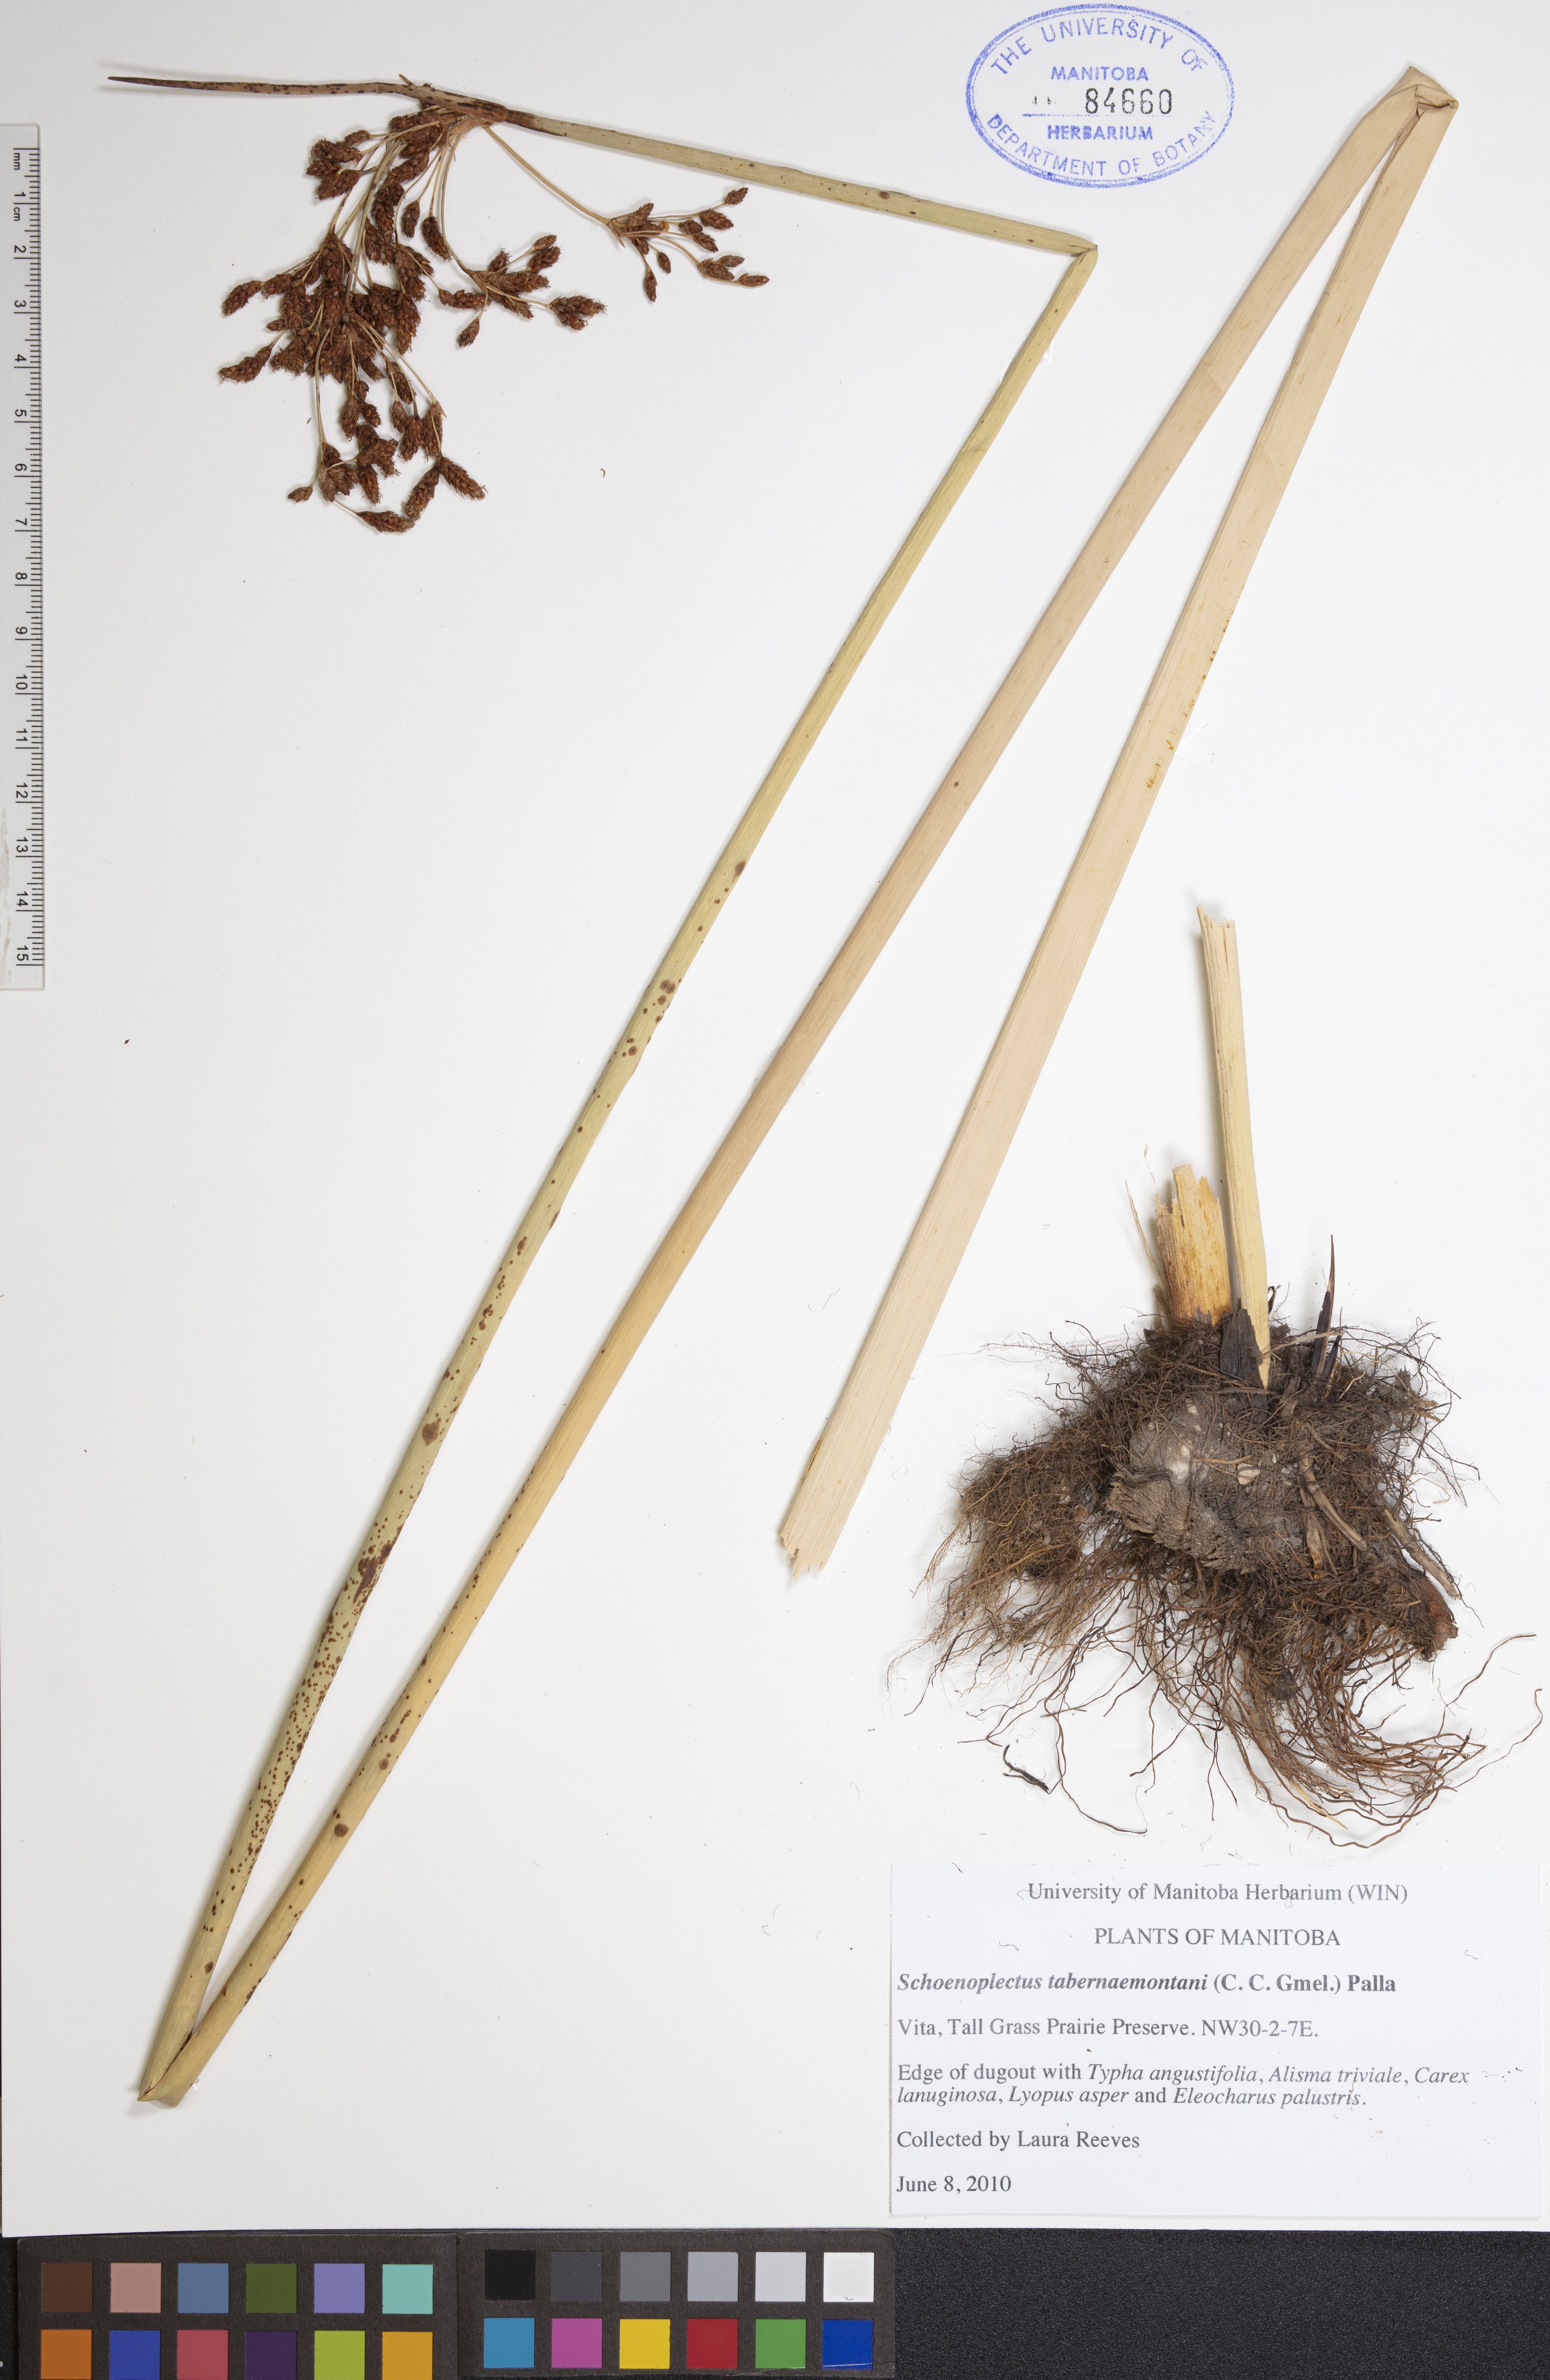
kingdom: Plantae
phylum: Tracheophyta
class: Liliopsida
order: Poales
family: Cyperaceae
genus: Schoenoplectus
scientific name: Schoenoplectus tabernaemontani
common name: Grey club-rush
